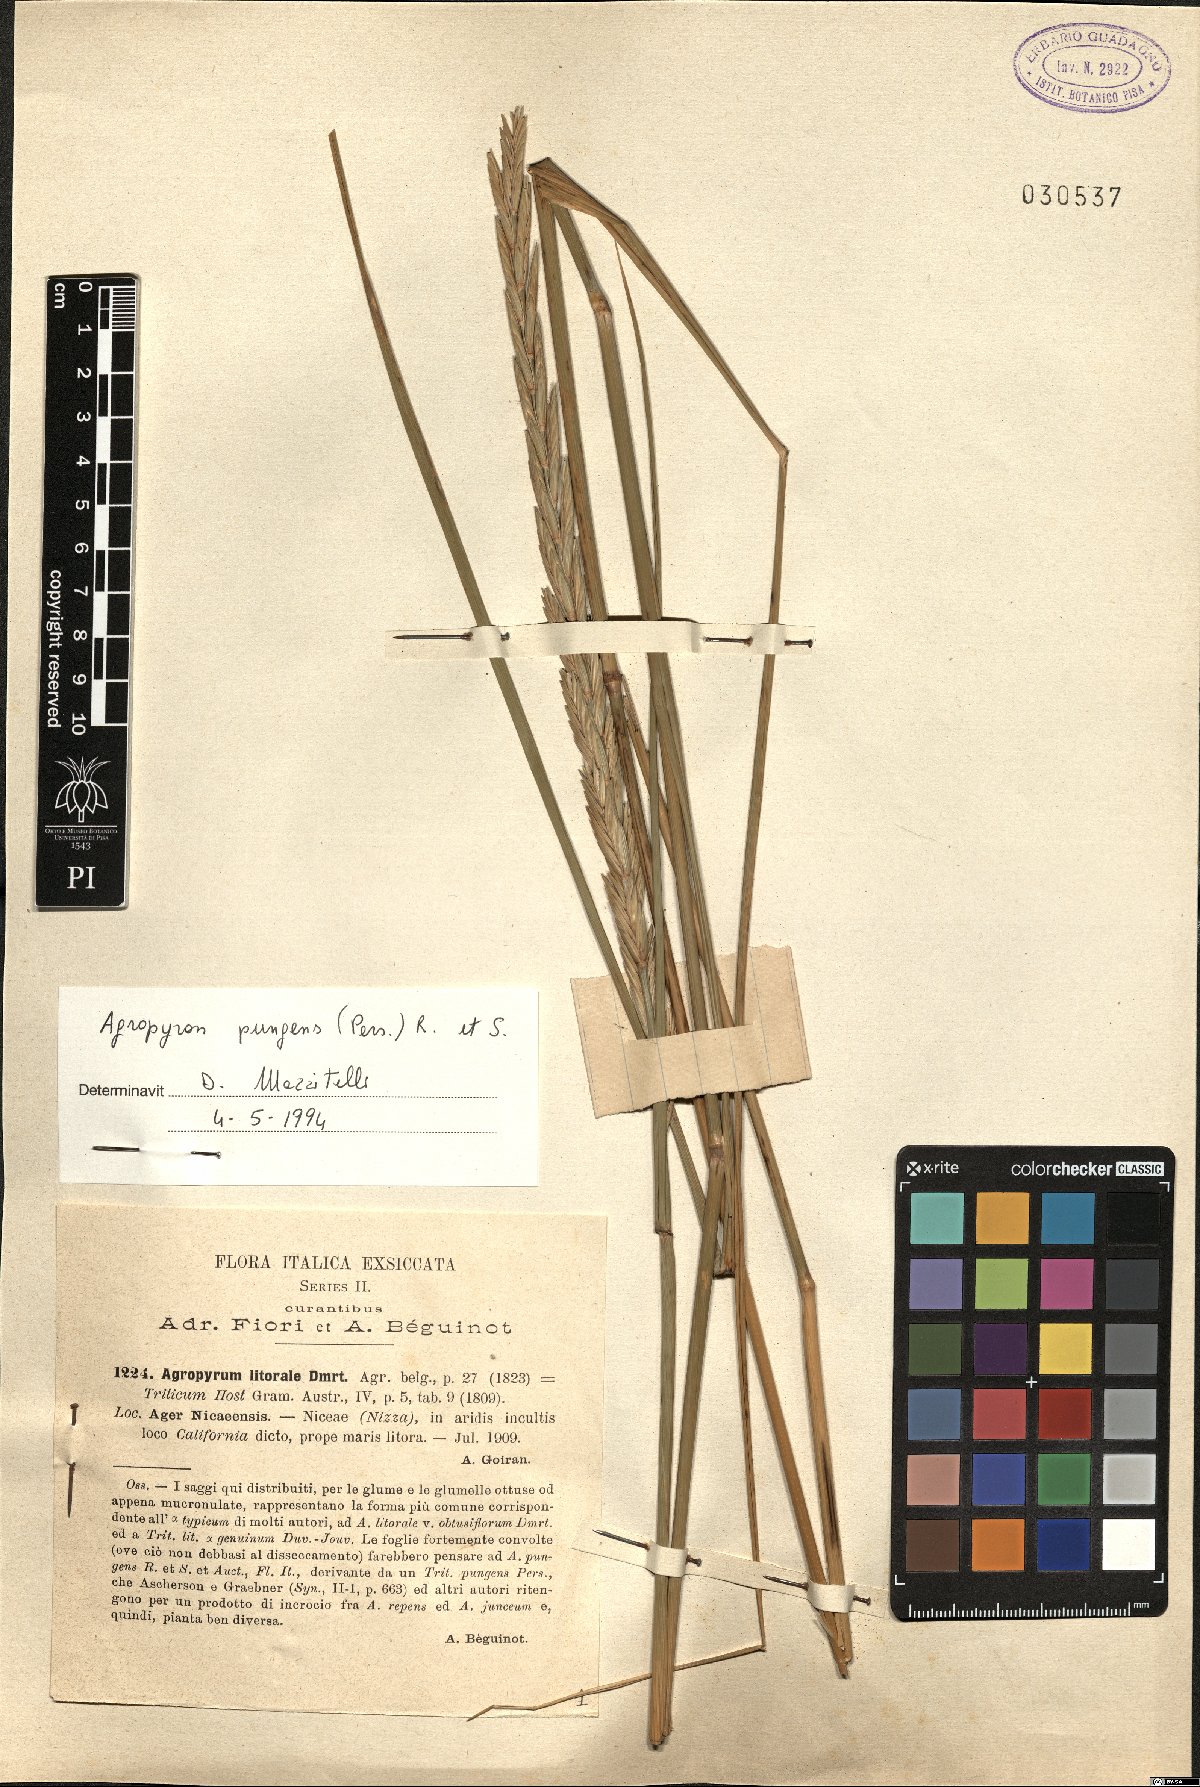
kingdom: Plantae
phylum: Tracheophyta
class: Liliopsida
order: Poales
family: Poaceae
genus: Elymus
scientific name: Elymus pungens
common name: Sea couch
